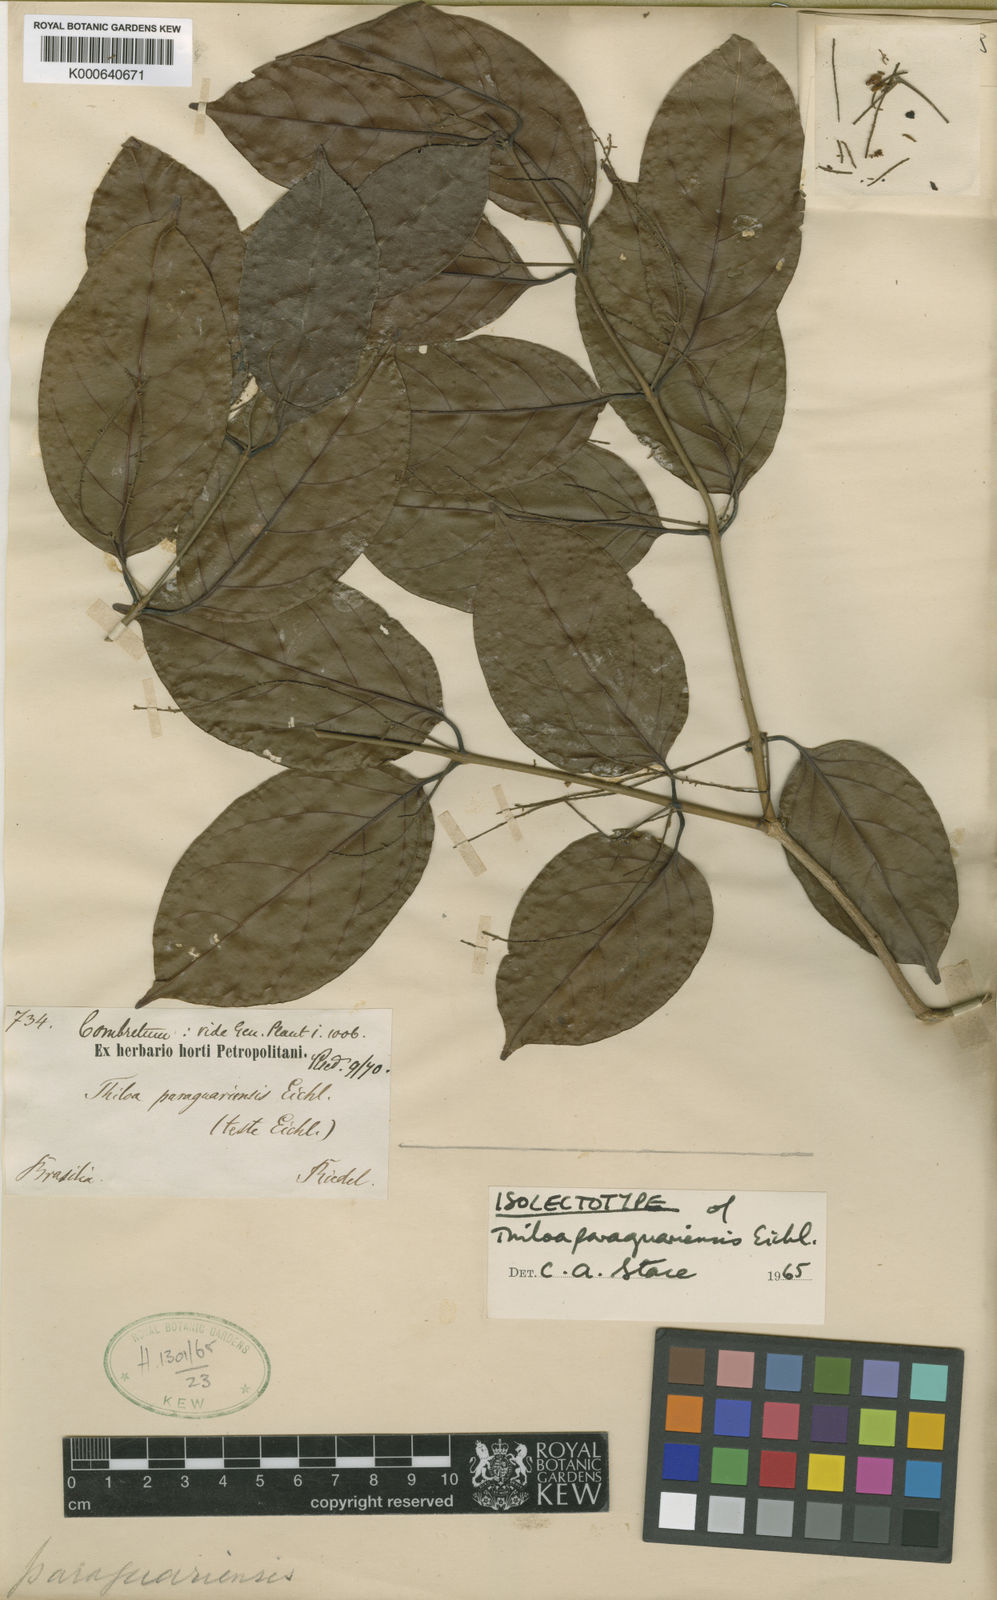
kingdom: Plantae
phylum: Tracheophyta
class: Magnoliopsida
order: Myrtales
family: Combretaceae
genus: Combretum
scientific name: Combretum paraguariense
